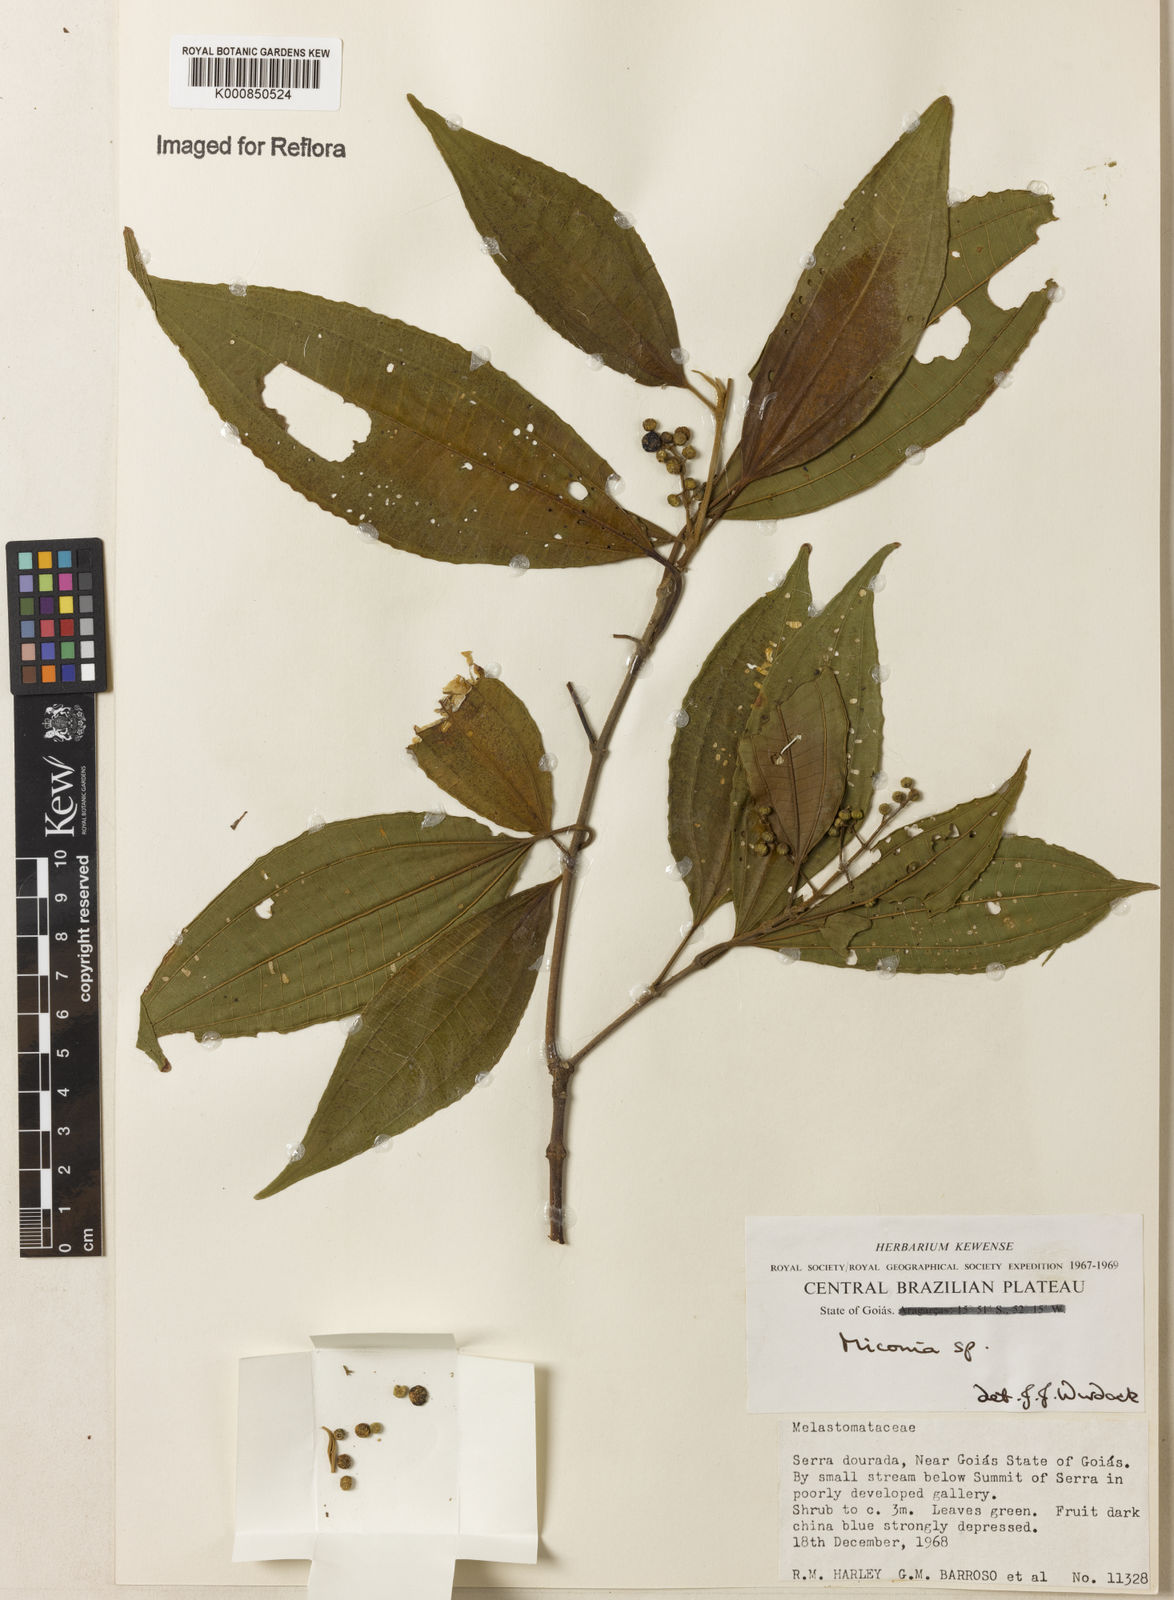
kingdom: Plantae
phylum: Tracheophyta
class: Magnoliopsida
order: Myrtales
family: Melastomataceae
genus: Miconia
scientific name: Miconia
